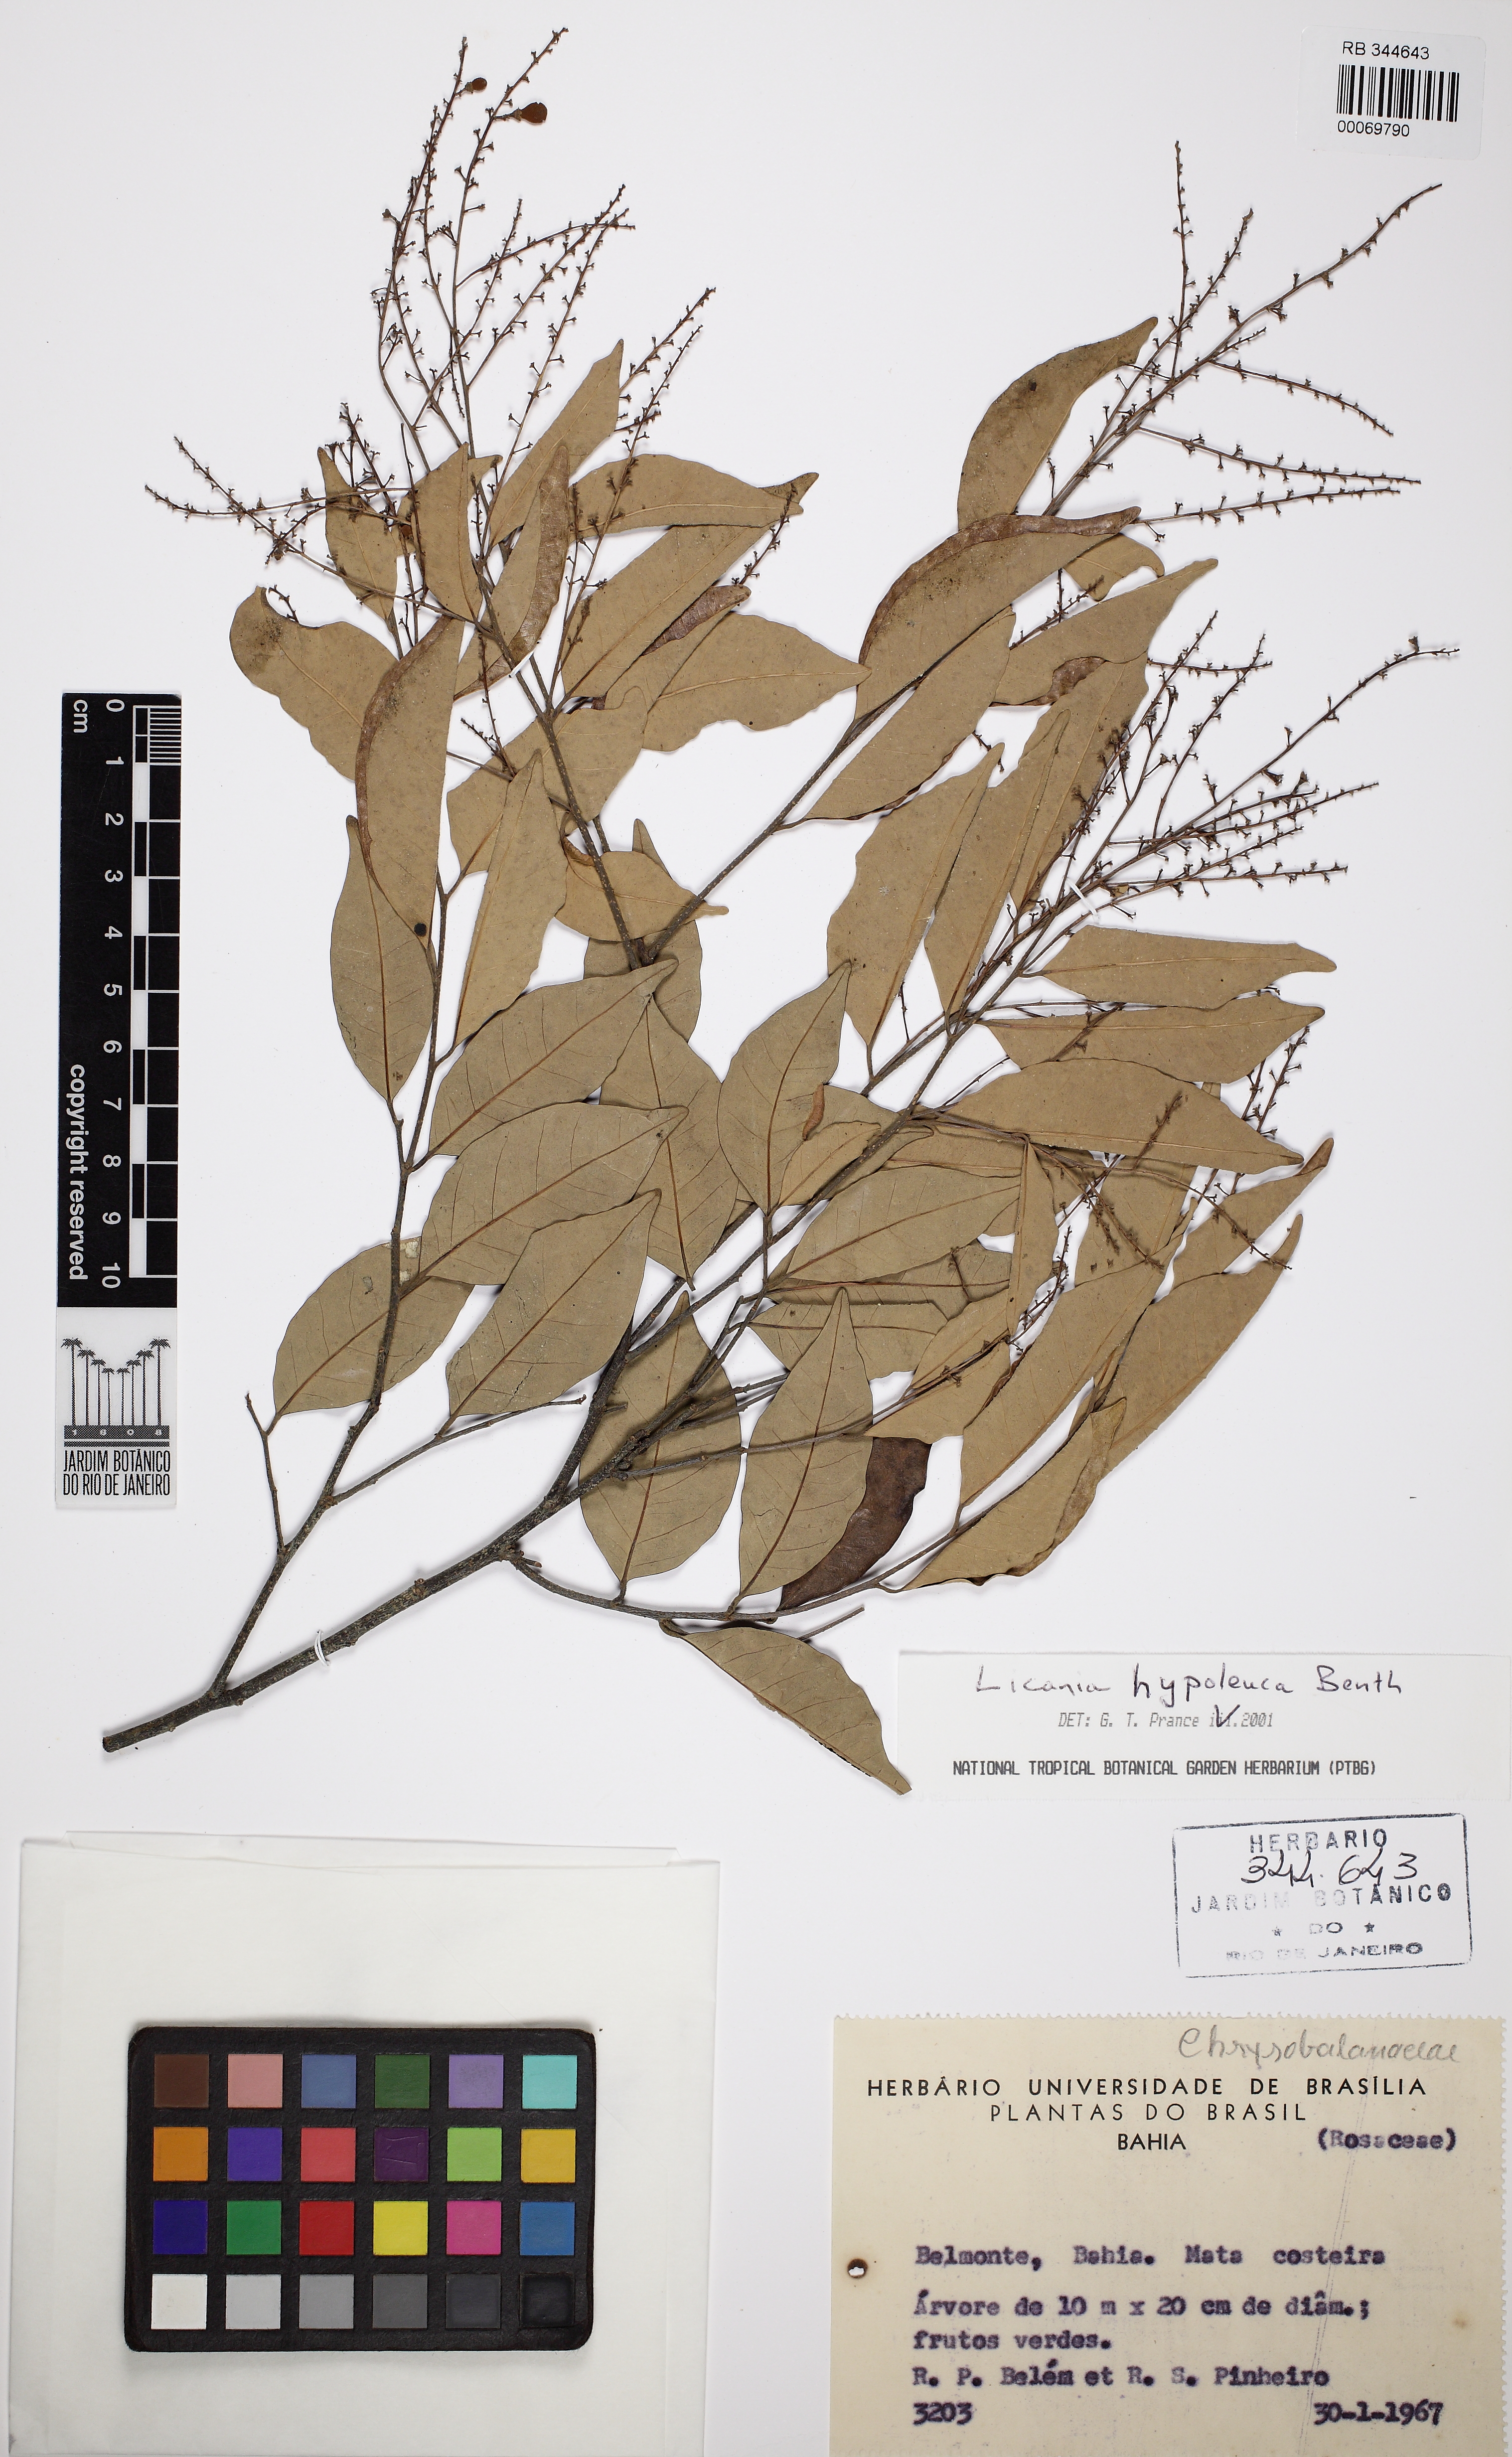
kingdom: Plantae
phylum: Tracheophyta
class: Magnoliopsida
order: Malpighiales
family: Chrysobalanaceae
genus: Licania
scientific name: Licania hypoleuca
